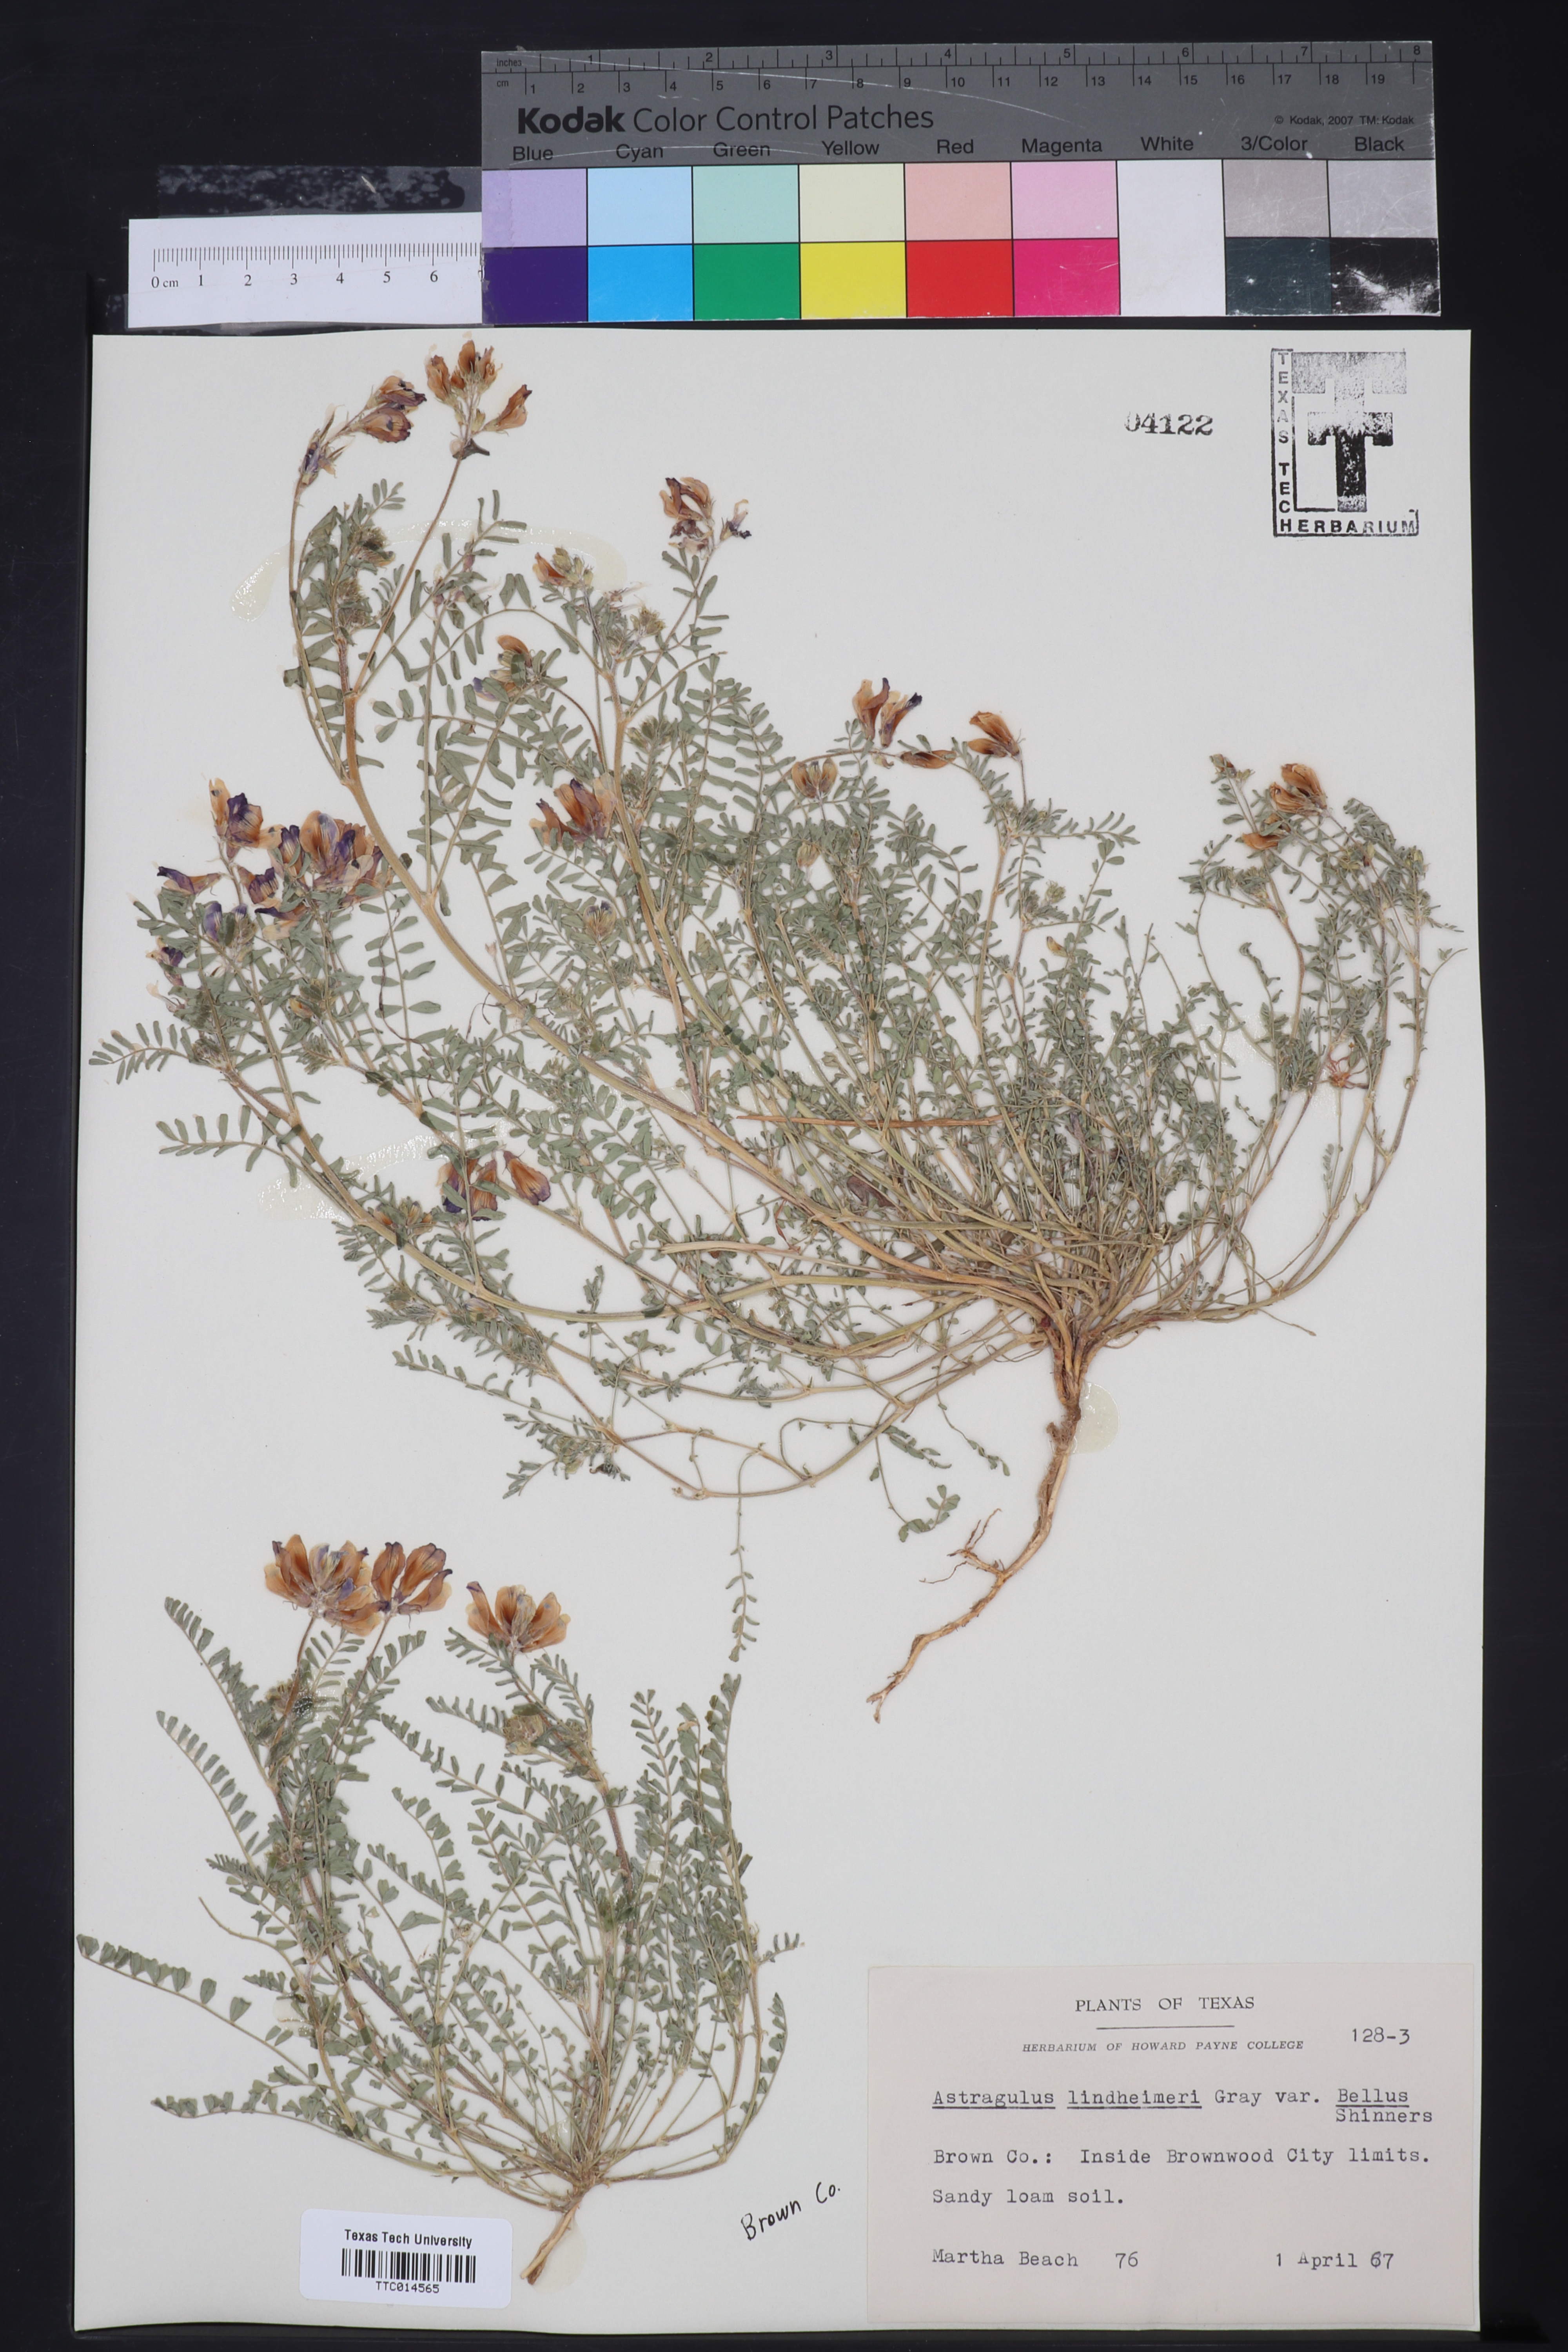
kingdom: Plantae
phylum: Tracheophyta
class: Magnoliopsida
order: Fabales
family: Fabaceae
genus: Astragalus
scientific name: Astragalus lindheimeri
